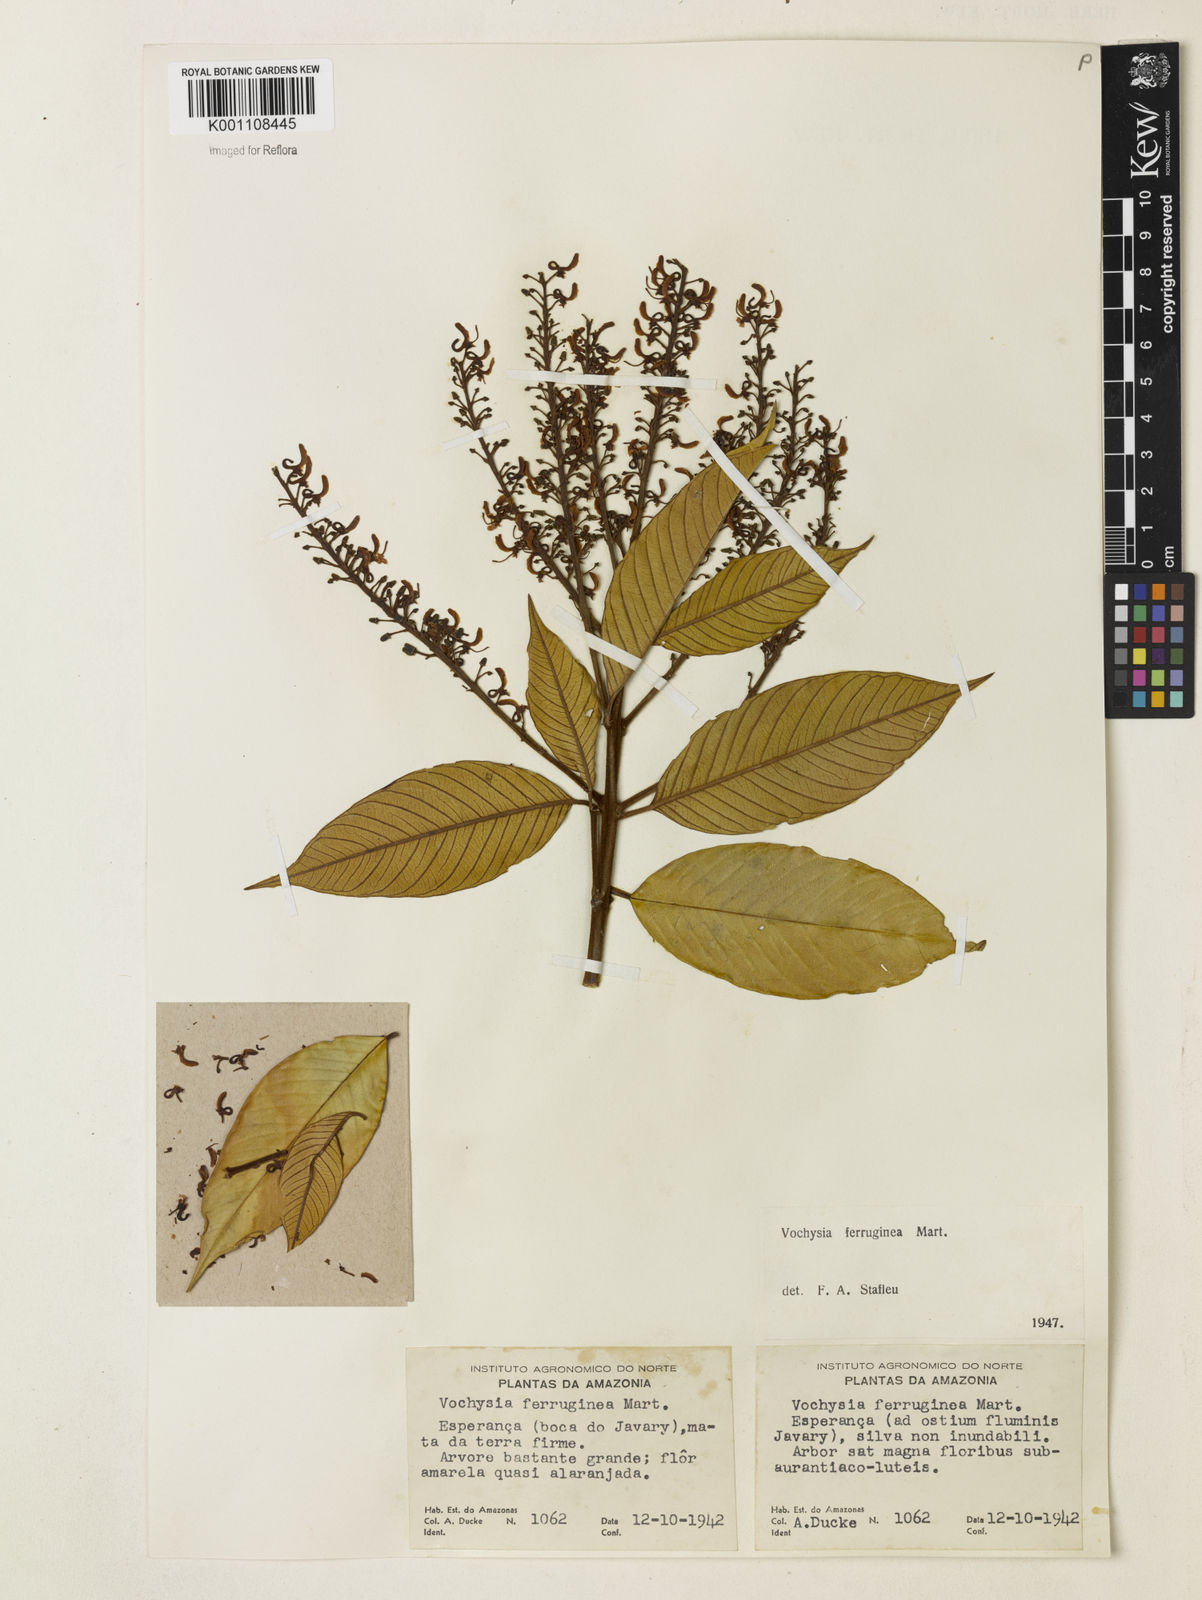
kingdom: Plantae
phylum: Tracheophyta
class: Magnoliopsida
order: Myrtales
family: Vochysiaceae
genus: Vochysia
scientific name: Vochysia ferruginea
